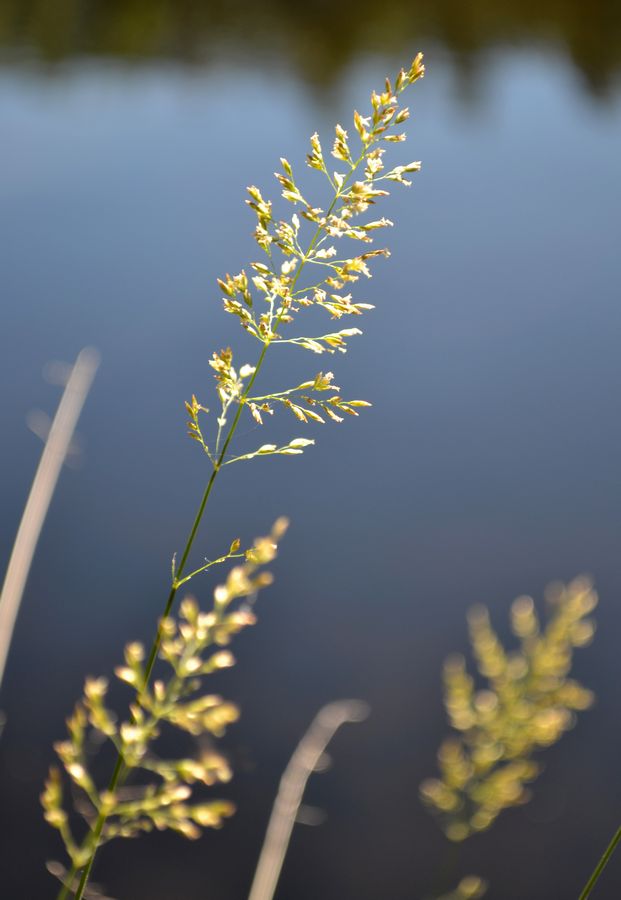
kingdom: Plantae
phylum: Tracheophyta
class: Liliopsida
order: Poales
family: Poaceae
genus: Poa
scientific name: Poa palustris
